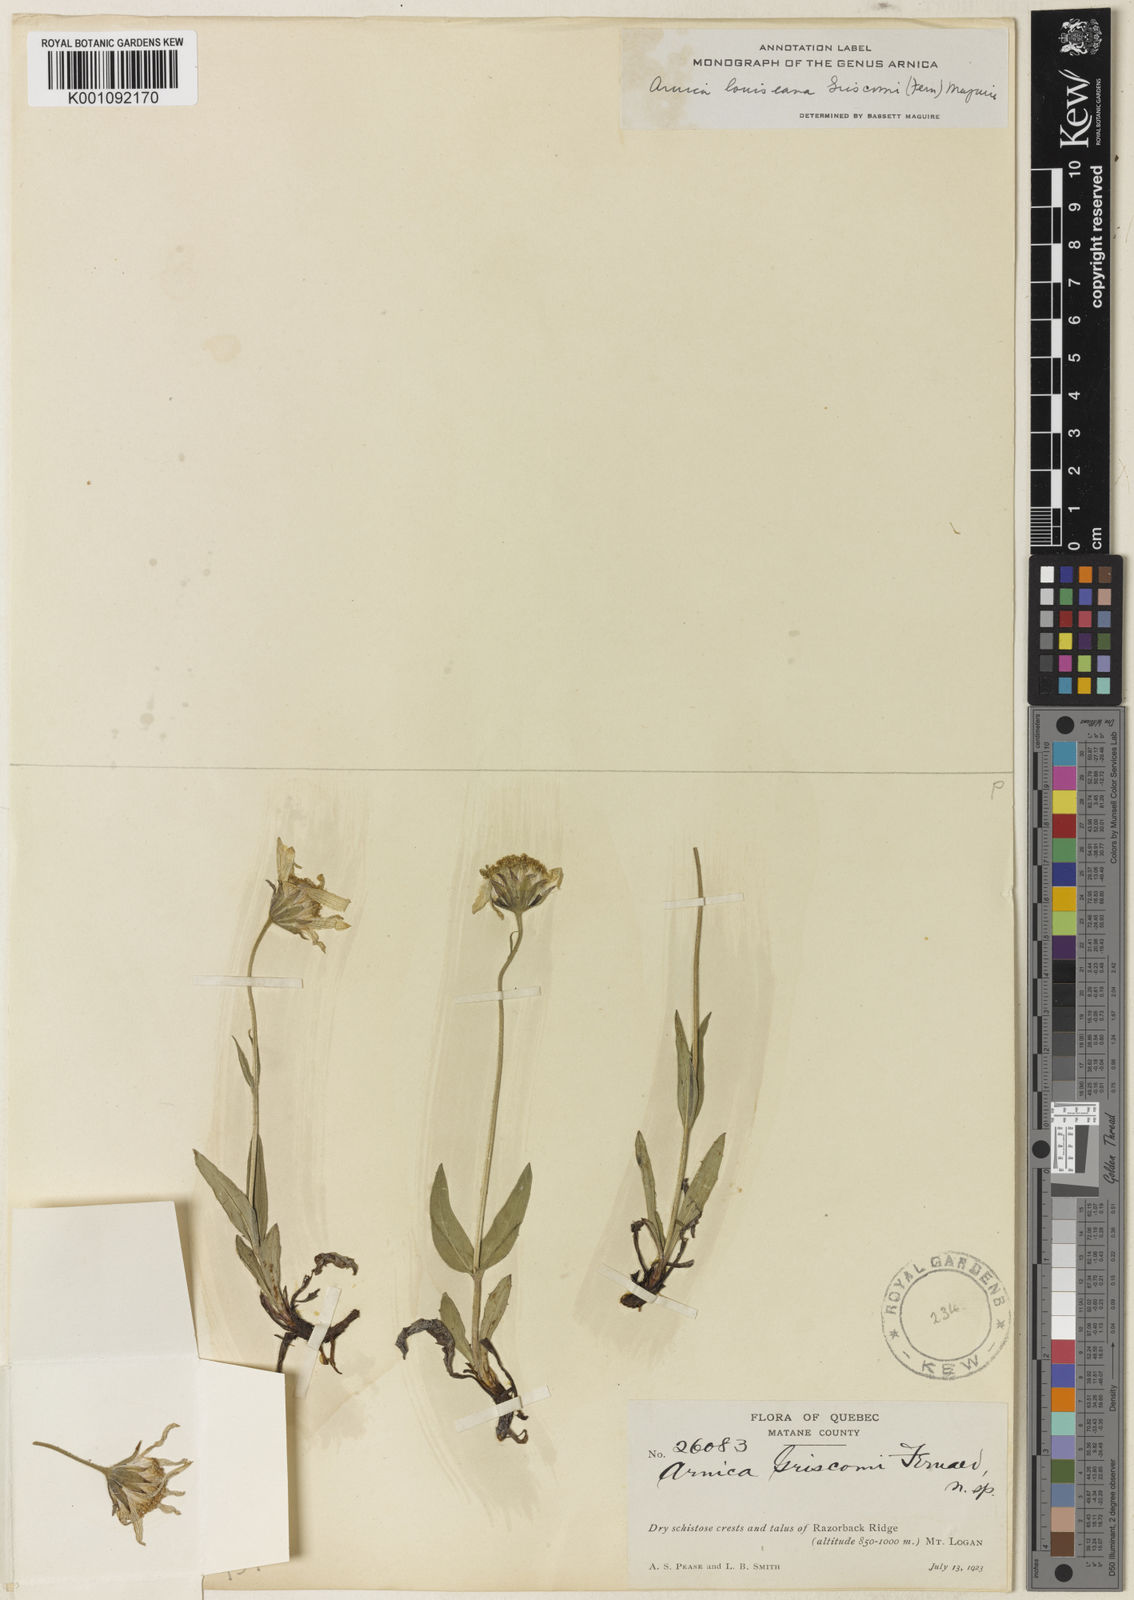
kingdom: Plantae
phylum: Tracheophyta
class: Magnoliopsida
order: Solanales
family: Solanaceae
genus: Dyssochroma
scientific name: Dyssochroma viridiflorum
